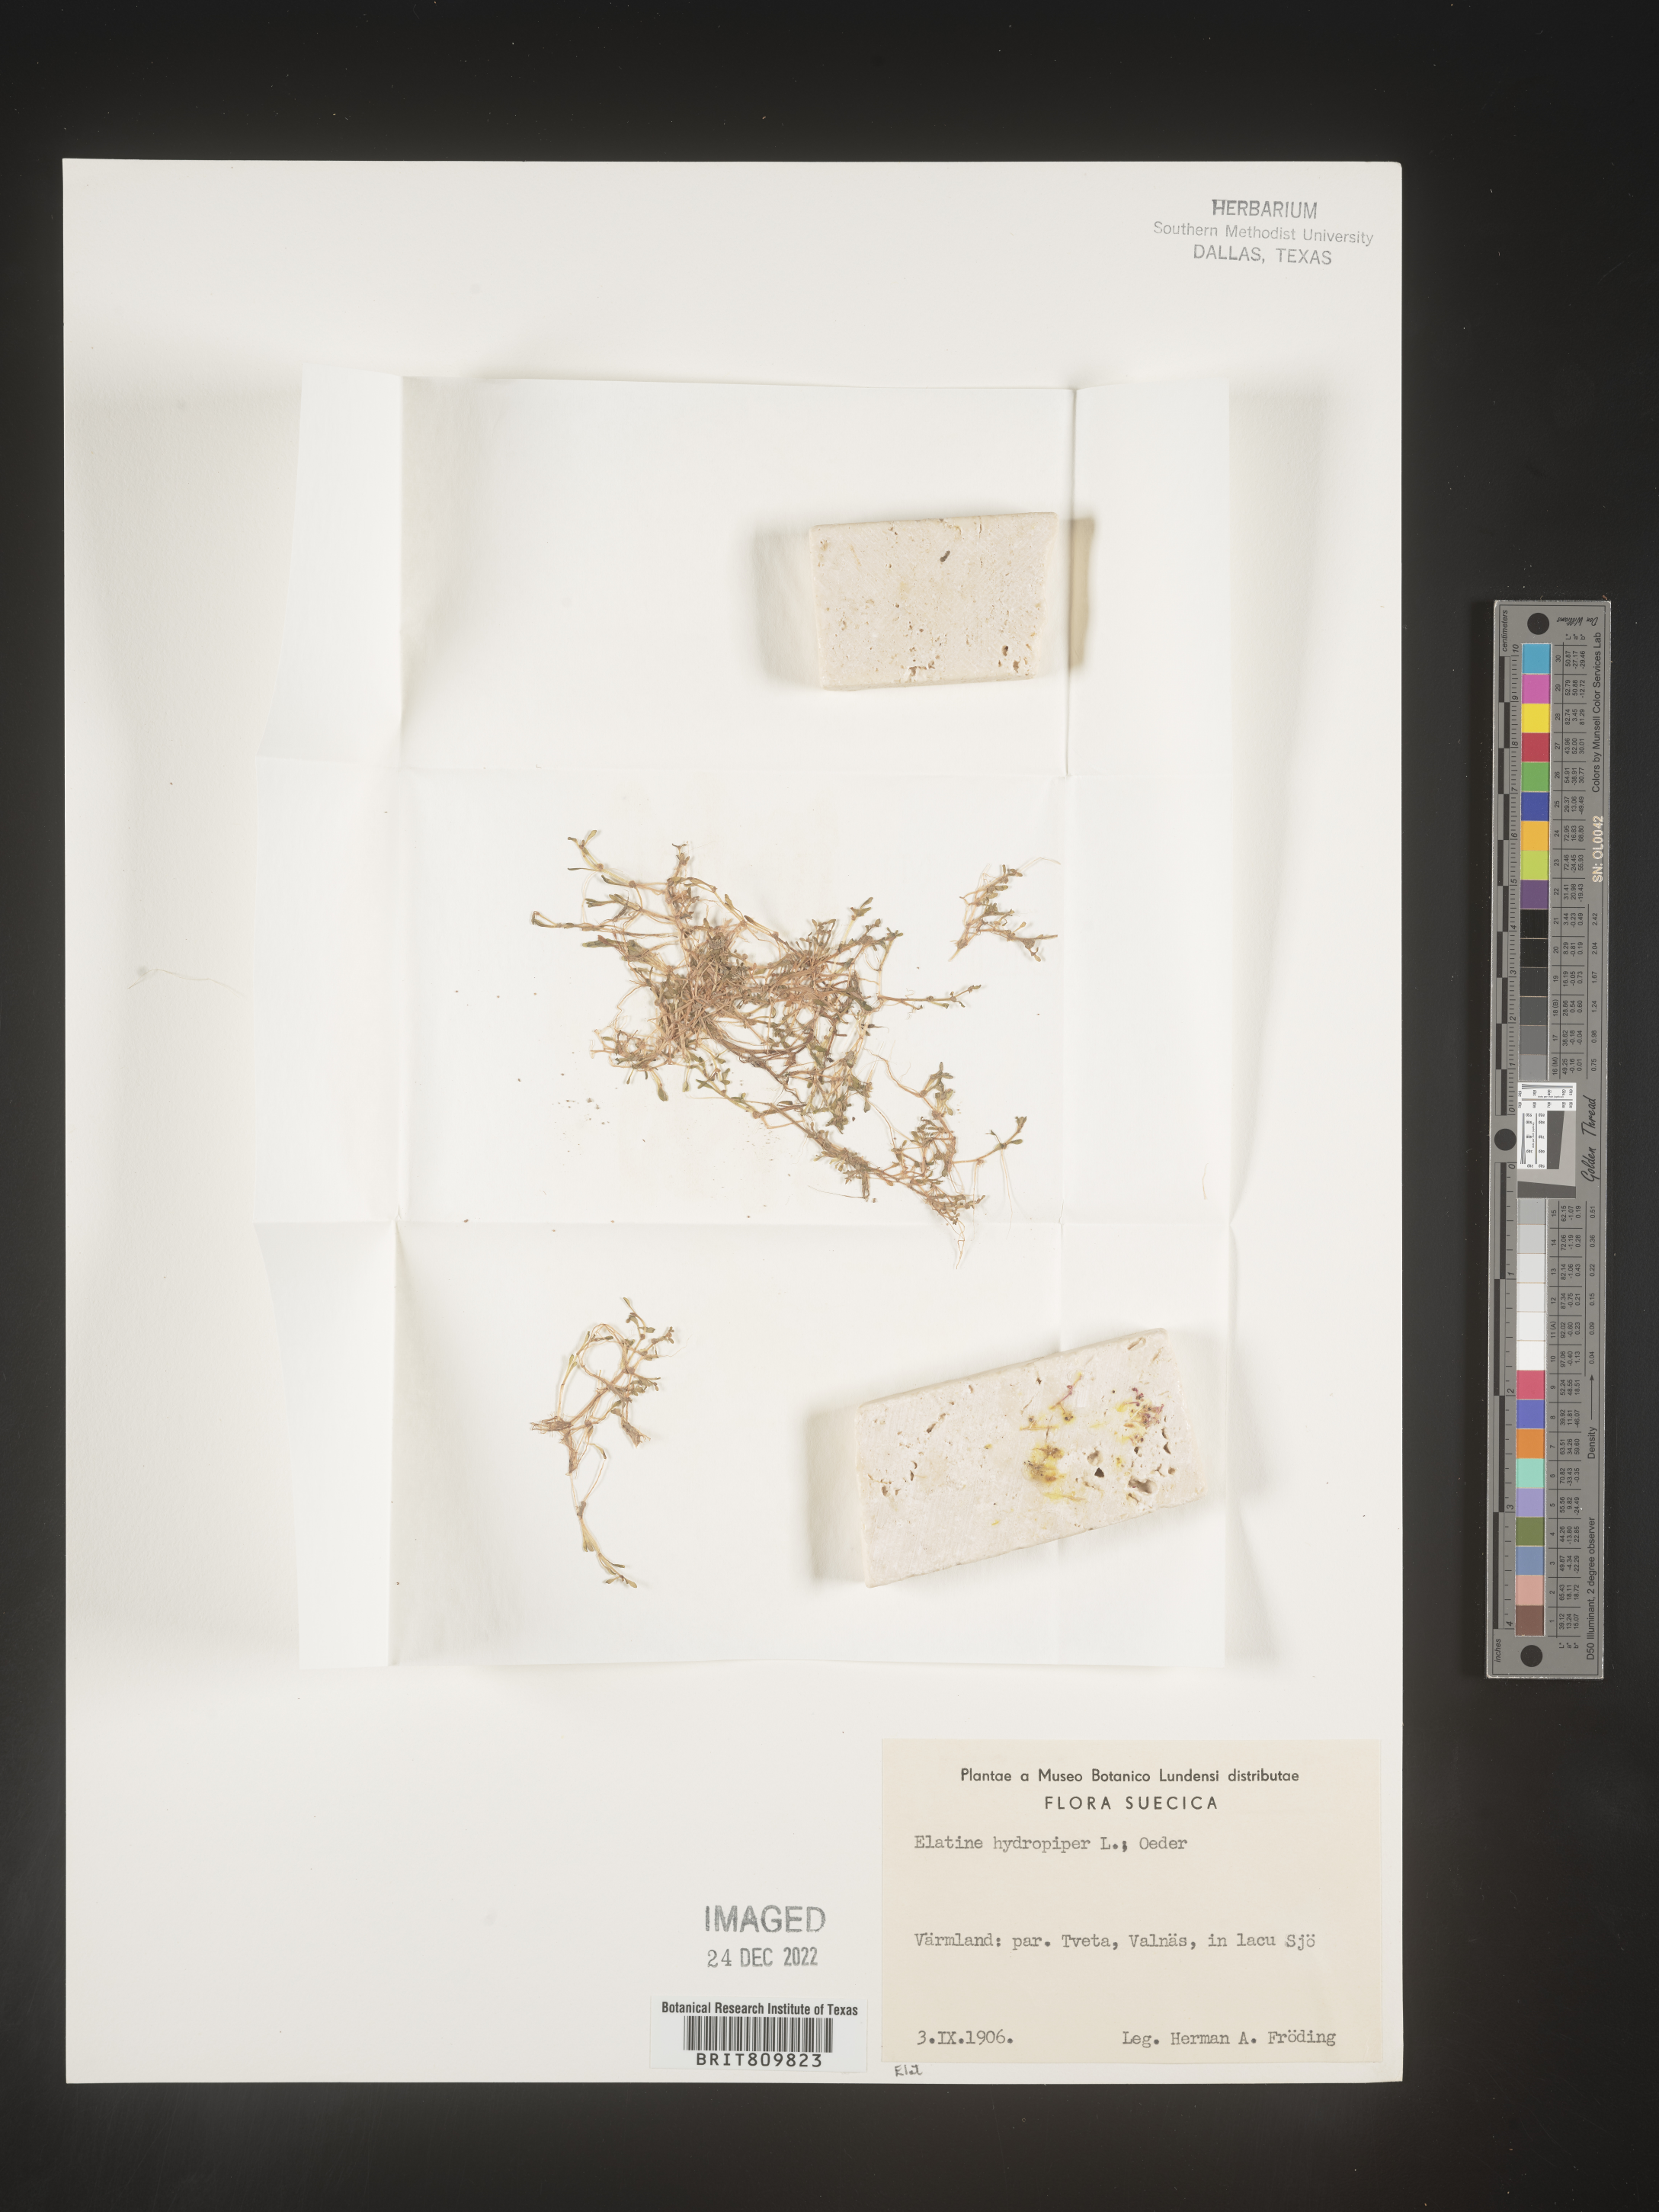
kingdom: Plantae
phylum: Tracheophyta
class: Magnoliopsida
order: Malpighiales
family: Elatinaceae
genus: Elatine
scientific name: Elatine
